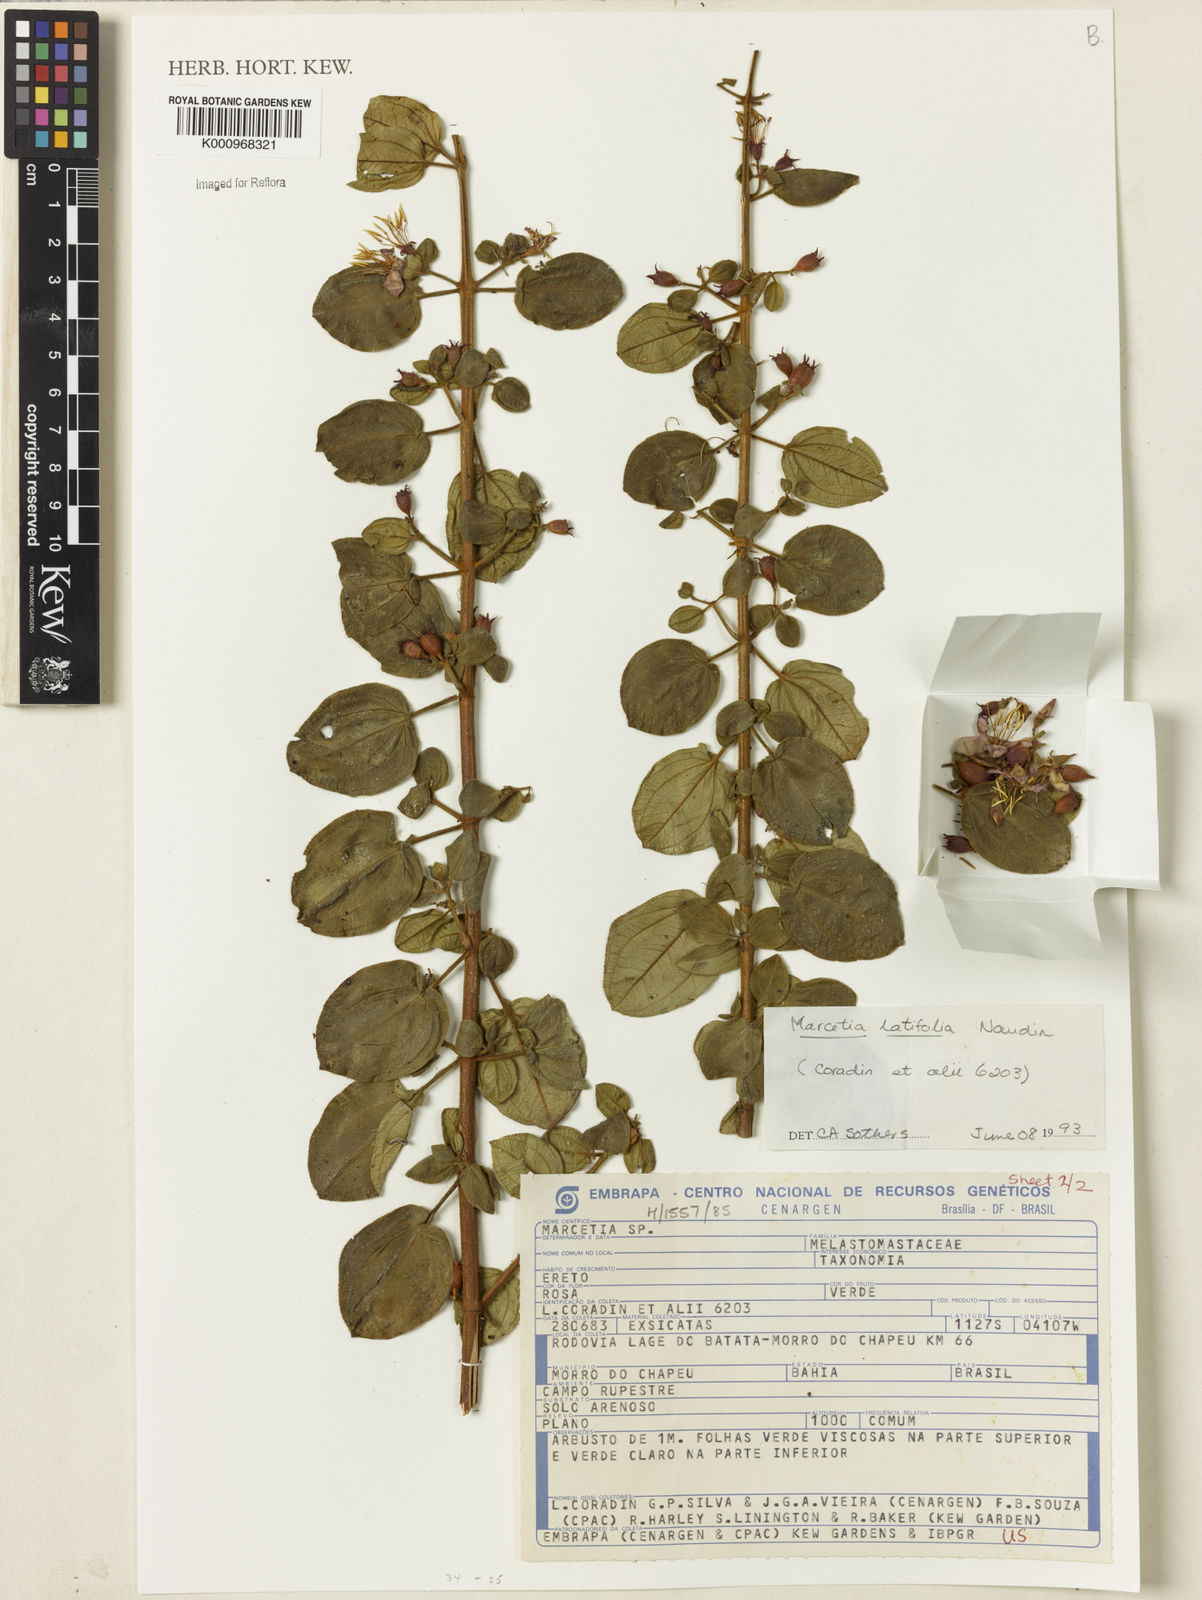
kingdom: Plantae
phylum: Tracheophyta
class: Magnoliopsida
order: Myrtales
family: Melastomataceae
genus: Marcetia
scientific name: Marcetia latifolia
